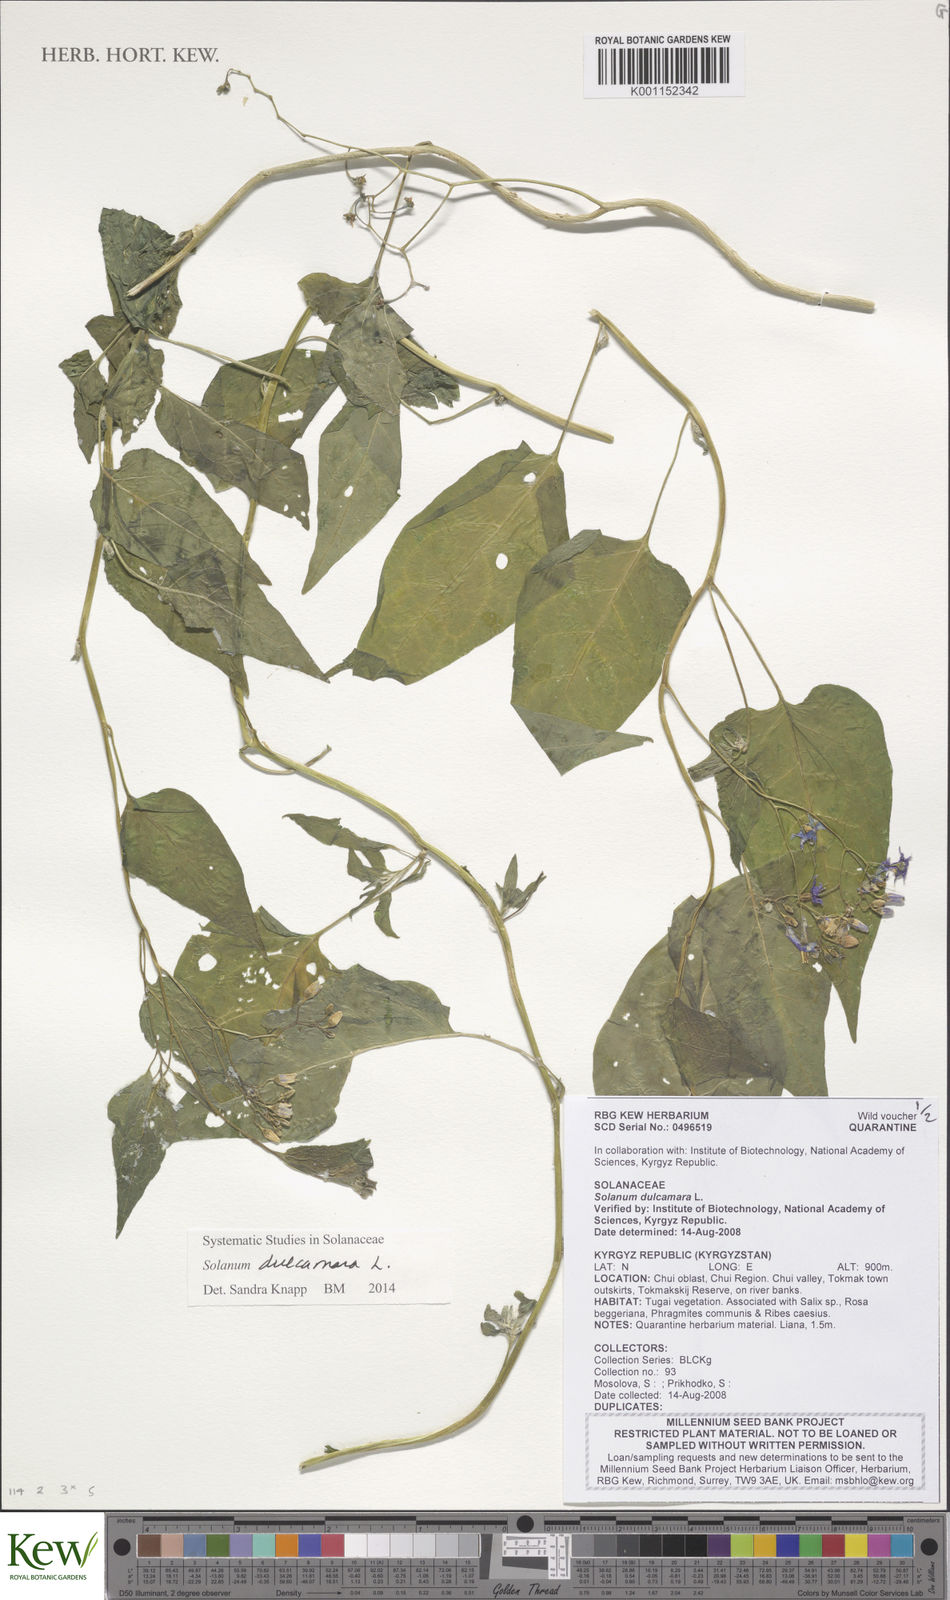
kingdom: Plantae
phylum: Tracheophyta
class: Magnoliopsida
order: Solanales
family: Solanaceae
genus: Solanum
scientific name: Solanum dulcamara
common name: Climbing nightshade
